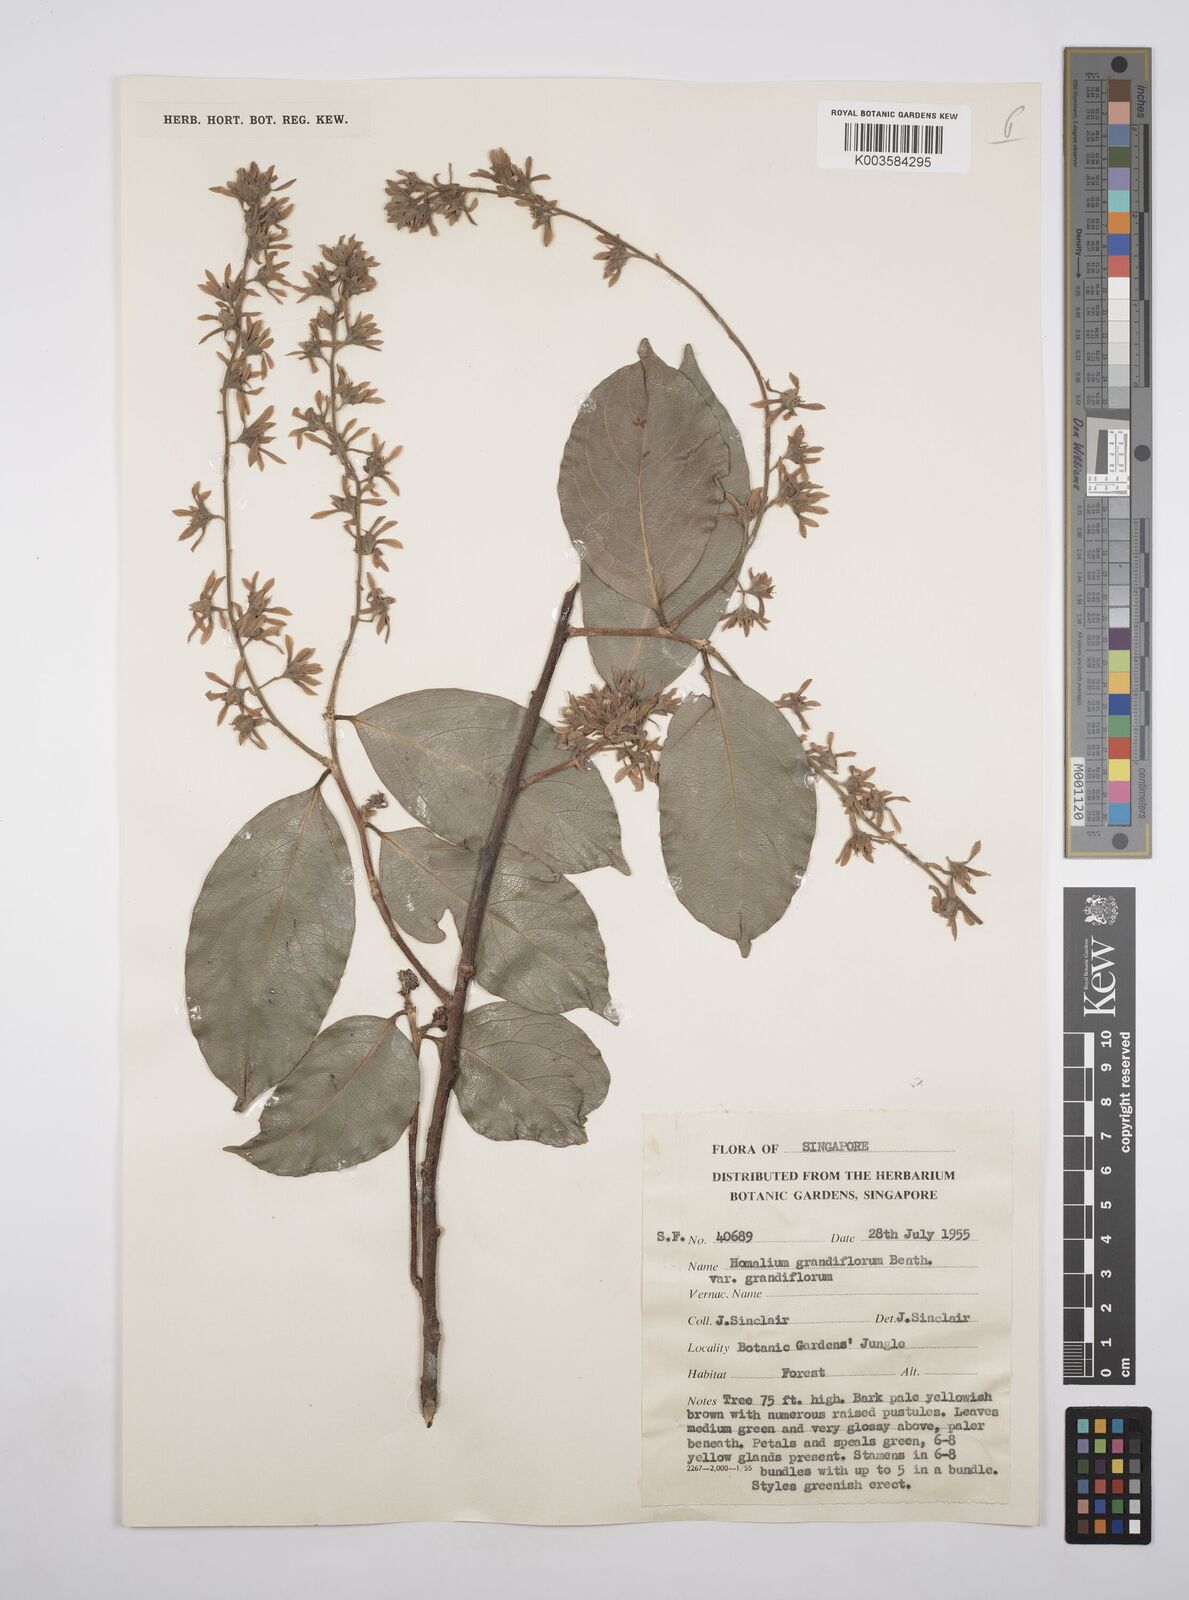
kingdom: Plantae
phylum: Tracheophyta
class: Magnoliopsida
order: Malpighiales
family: Salicaceae
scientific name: Salicaceae
